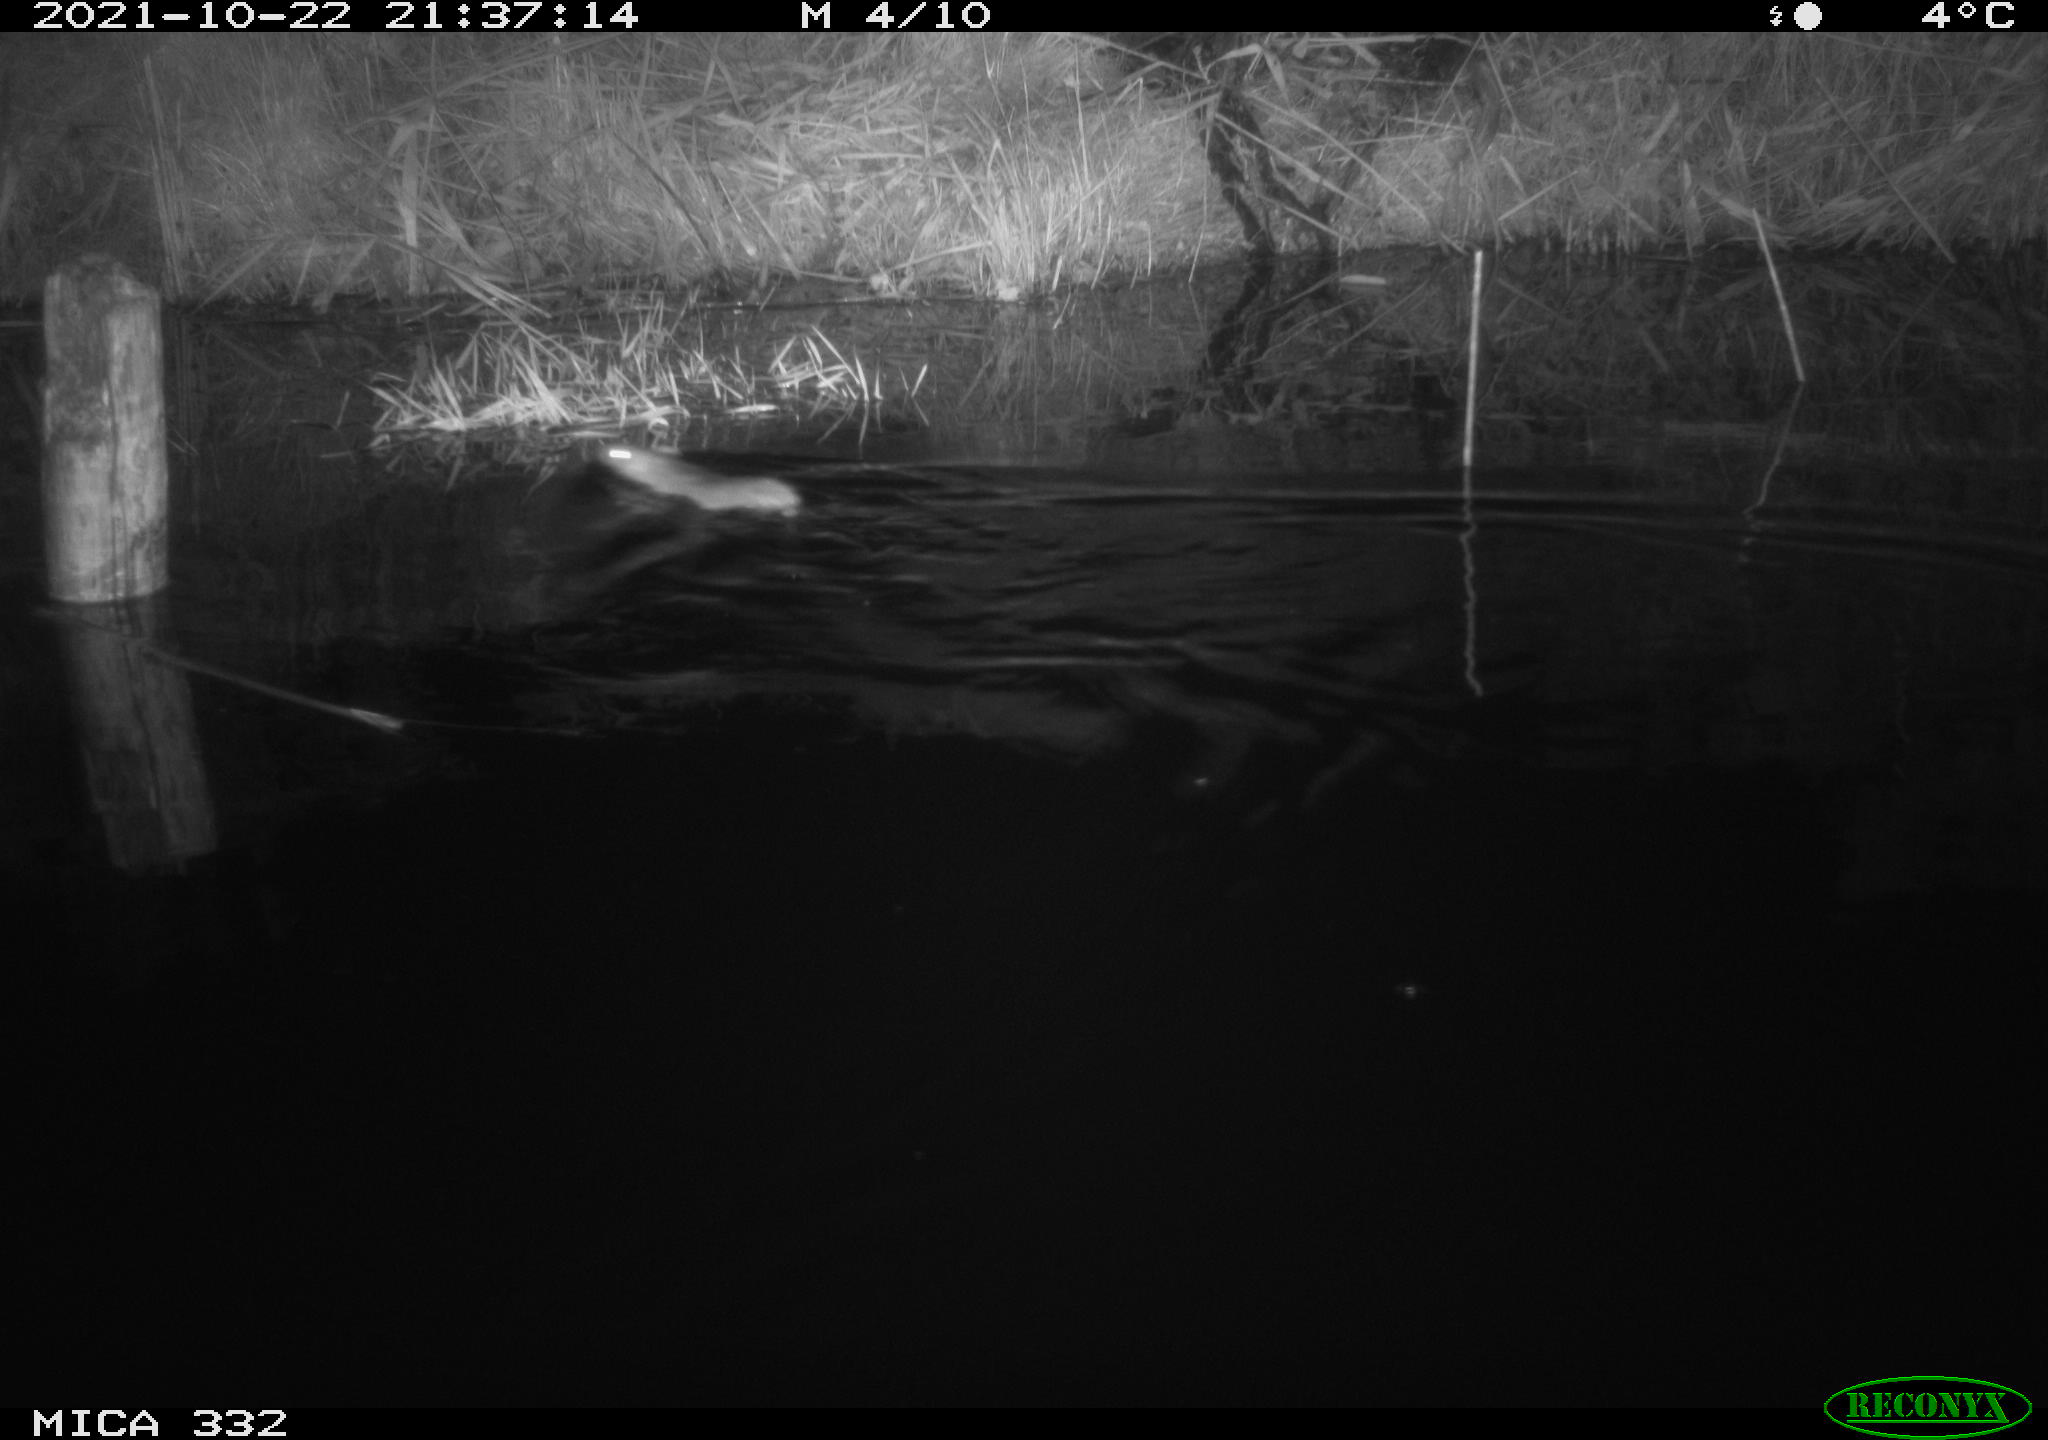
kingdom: Animalia
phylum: Chordata
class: Mammalia
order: Rodentia
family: Cricetidae
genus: Ondatra
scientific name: Ondatra zibethicus
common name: Muskrat
